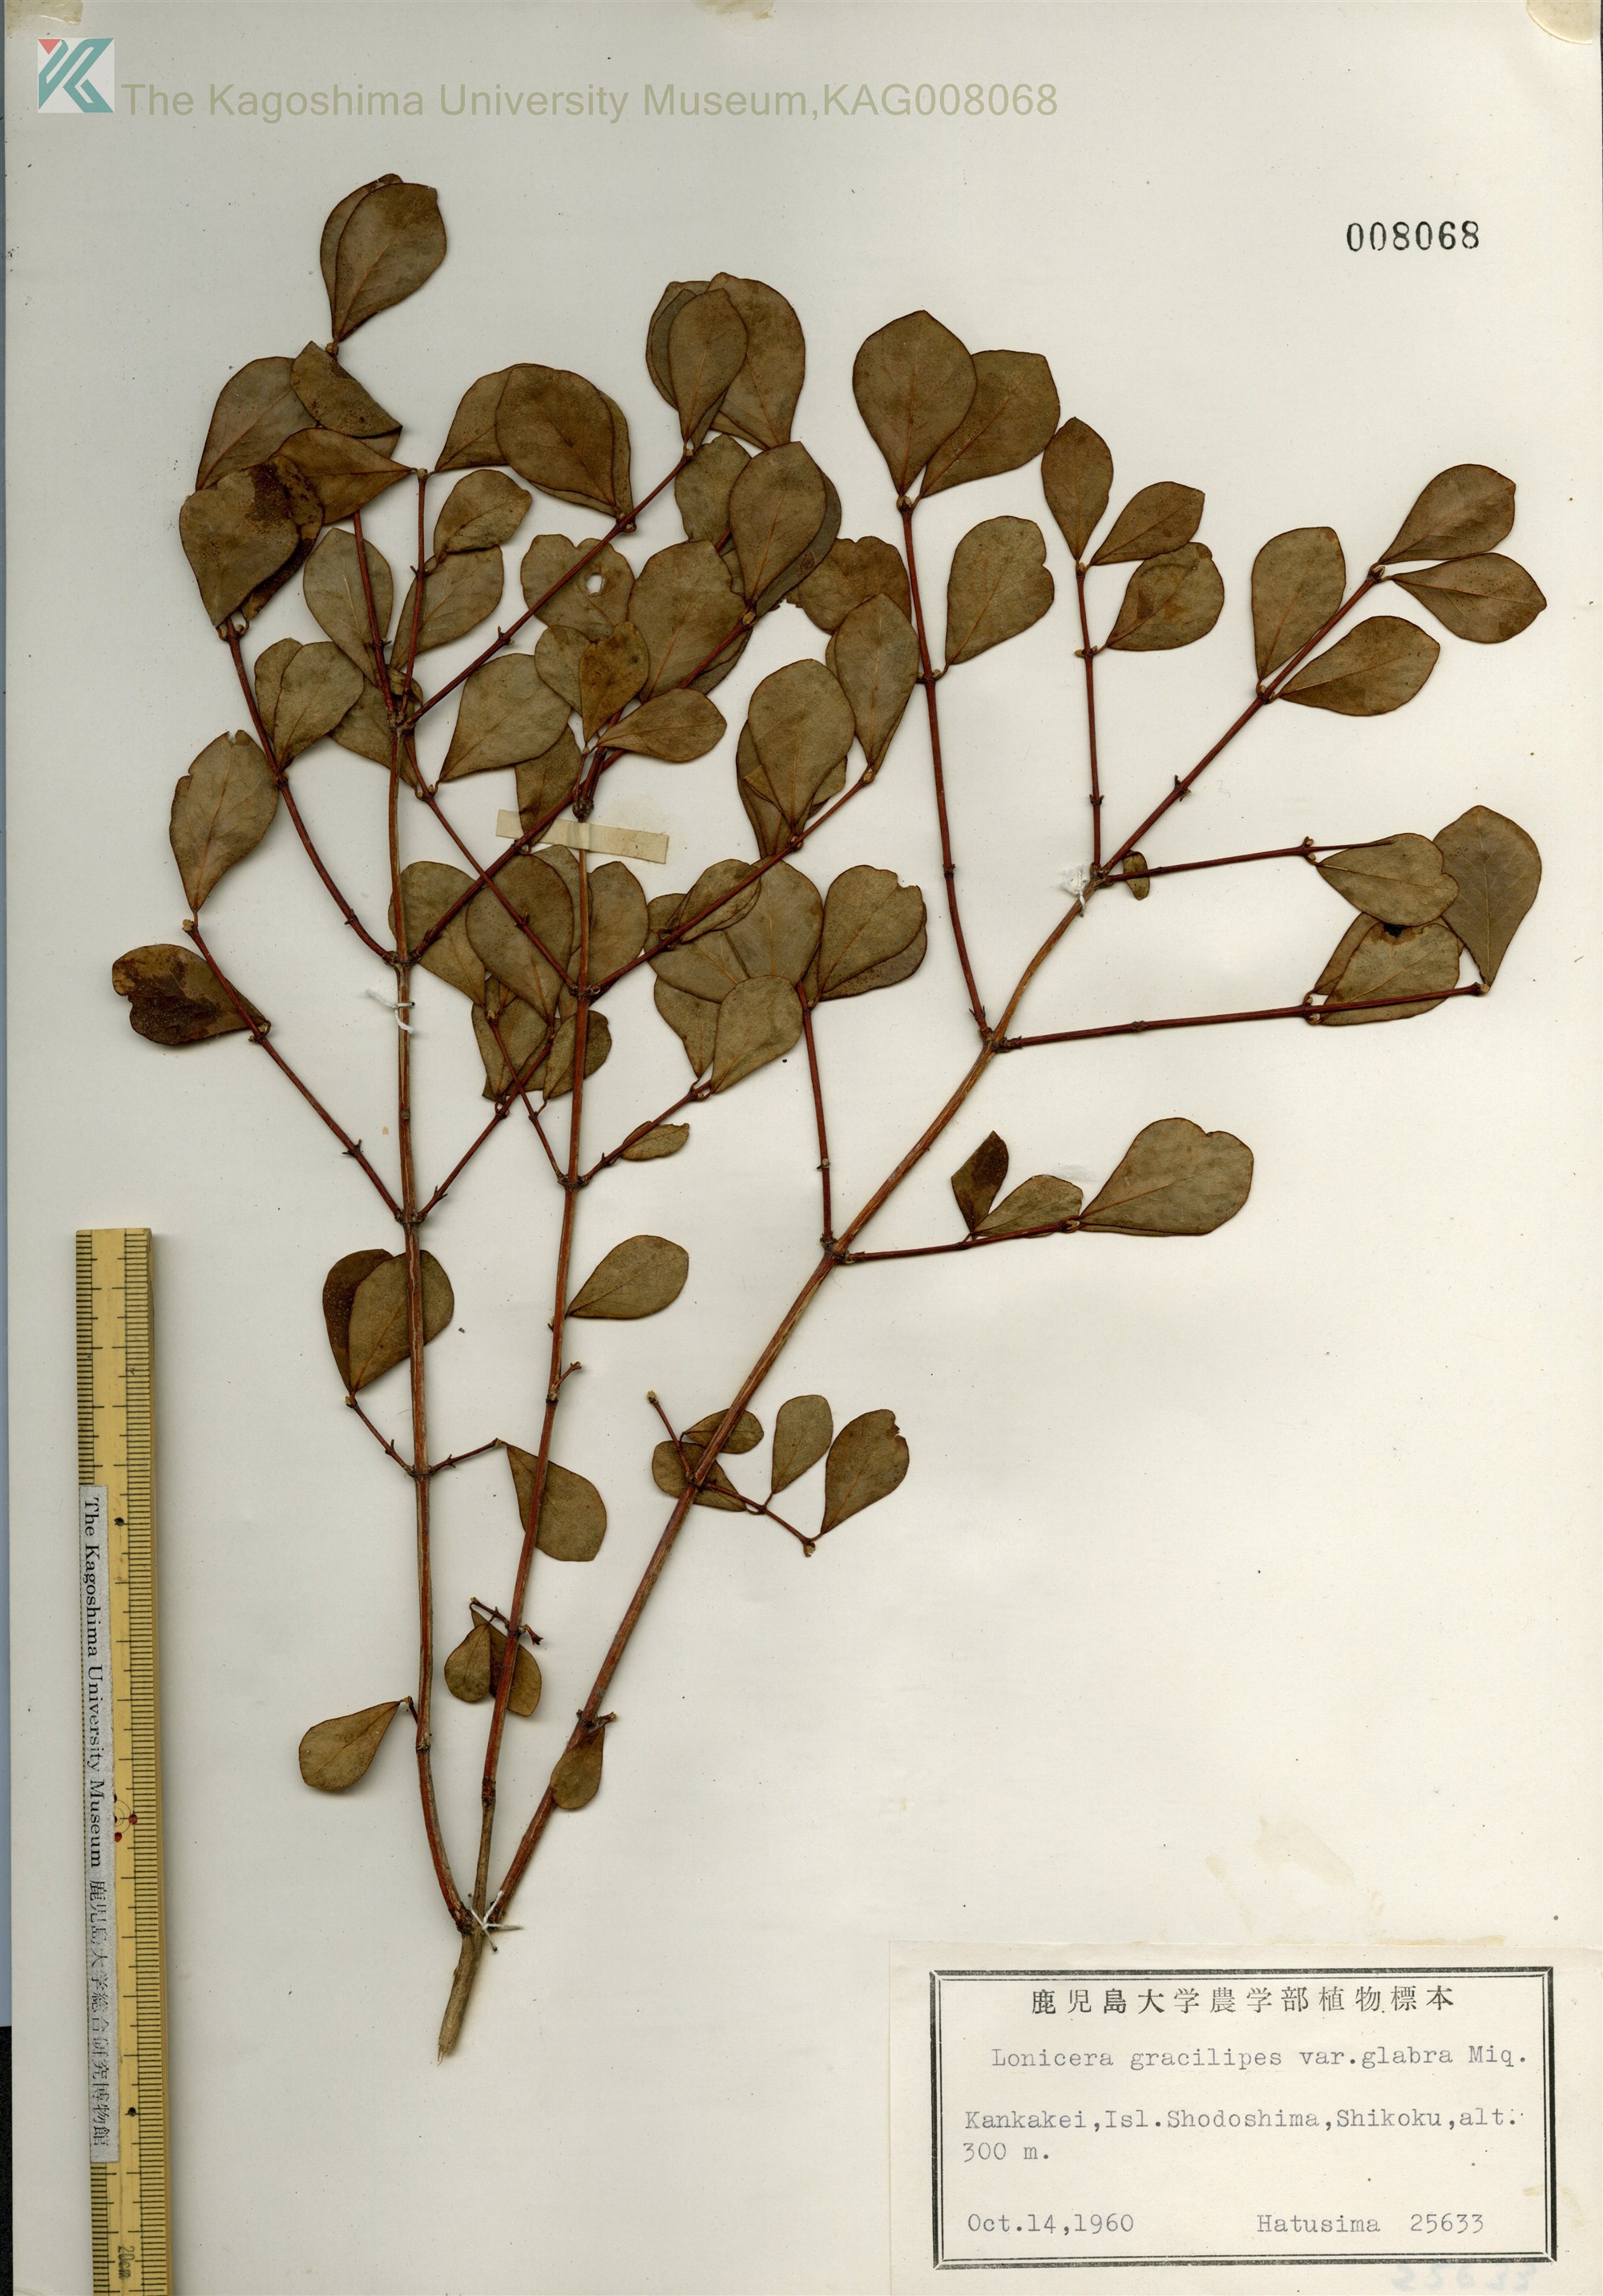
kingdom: Plantae
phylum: Tracheophyta
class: Magnoliopsida
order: Dipsacales
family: Caprifoliaceae
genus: Lonicera
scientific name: Lonicera gracilipes
